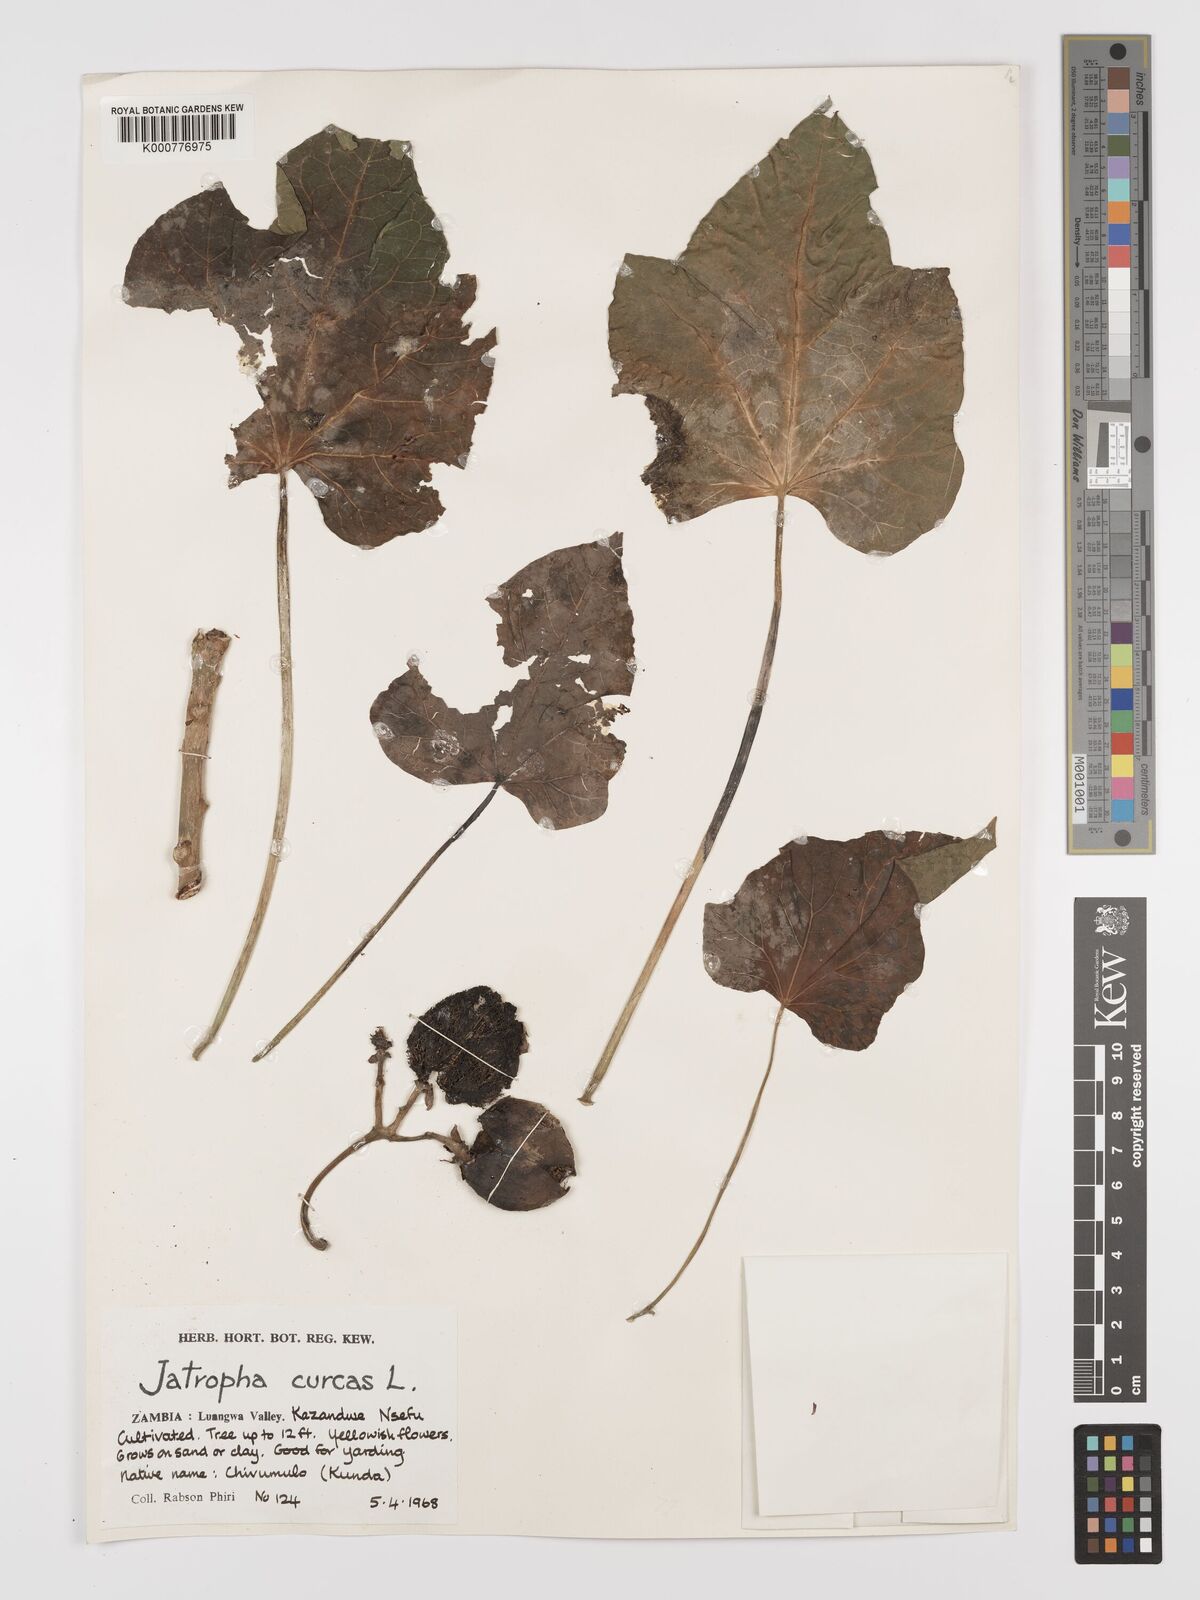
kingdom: Plantae
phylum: Tracheophyta
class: Magnoliopsida
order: Malpighiales
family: Euphorbiaceae
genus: Jatropha
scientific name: Jatropha curcas
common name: Barbados nut
